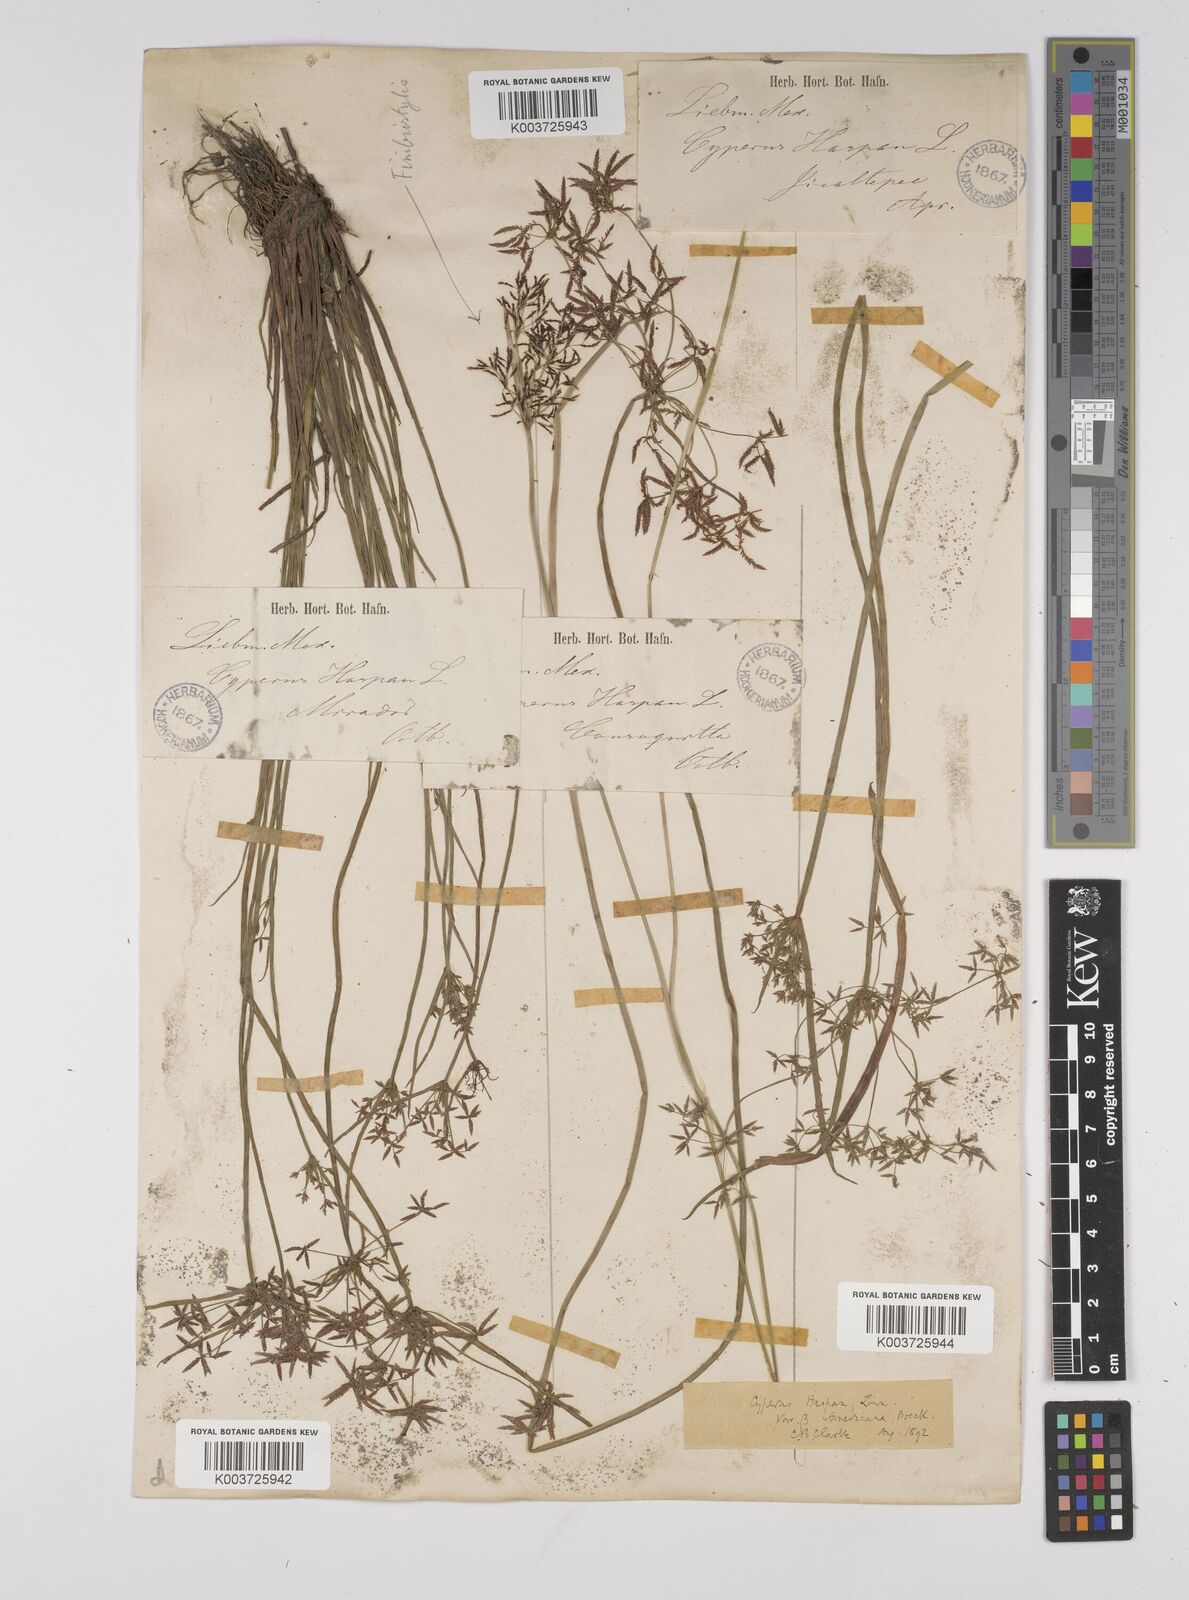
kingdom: Plantae
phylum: Tracheophyta
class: Liliopsida
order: Poales
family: Cyperaceae
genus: Cyperus
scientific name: Cyperus haspan
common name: Haspan flatsedge
